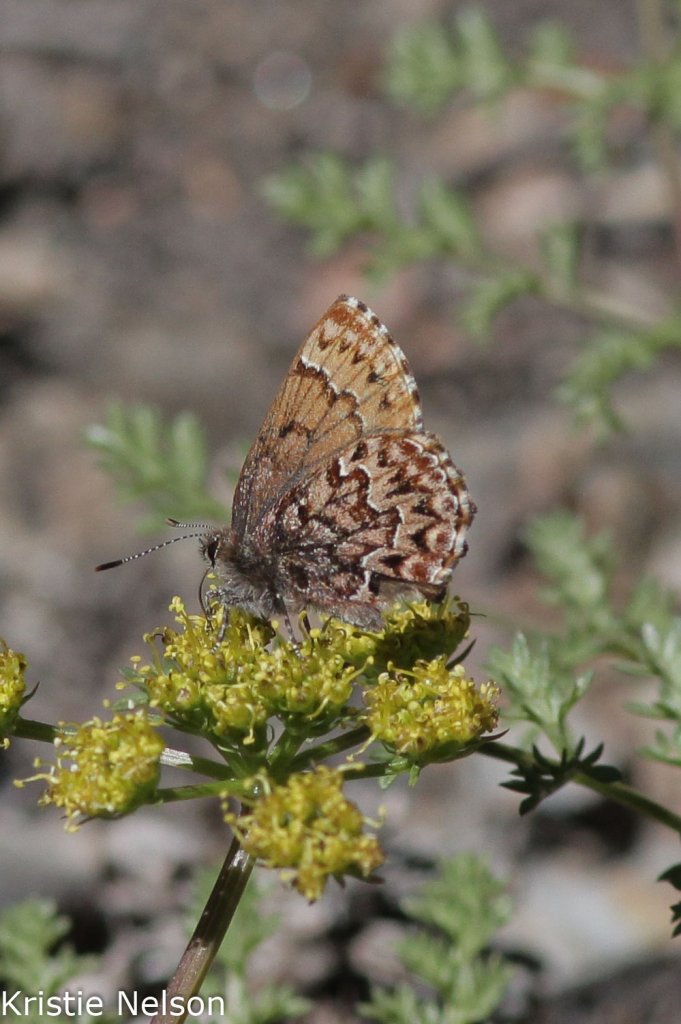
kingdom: Animalia
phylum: Arthropoda
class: Insecta
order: Lepidoptera
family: Lycaenidae
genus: Incisalia
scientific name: Incisalia eryphon
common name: Western Pine Elfin
